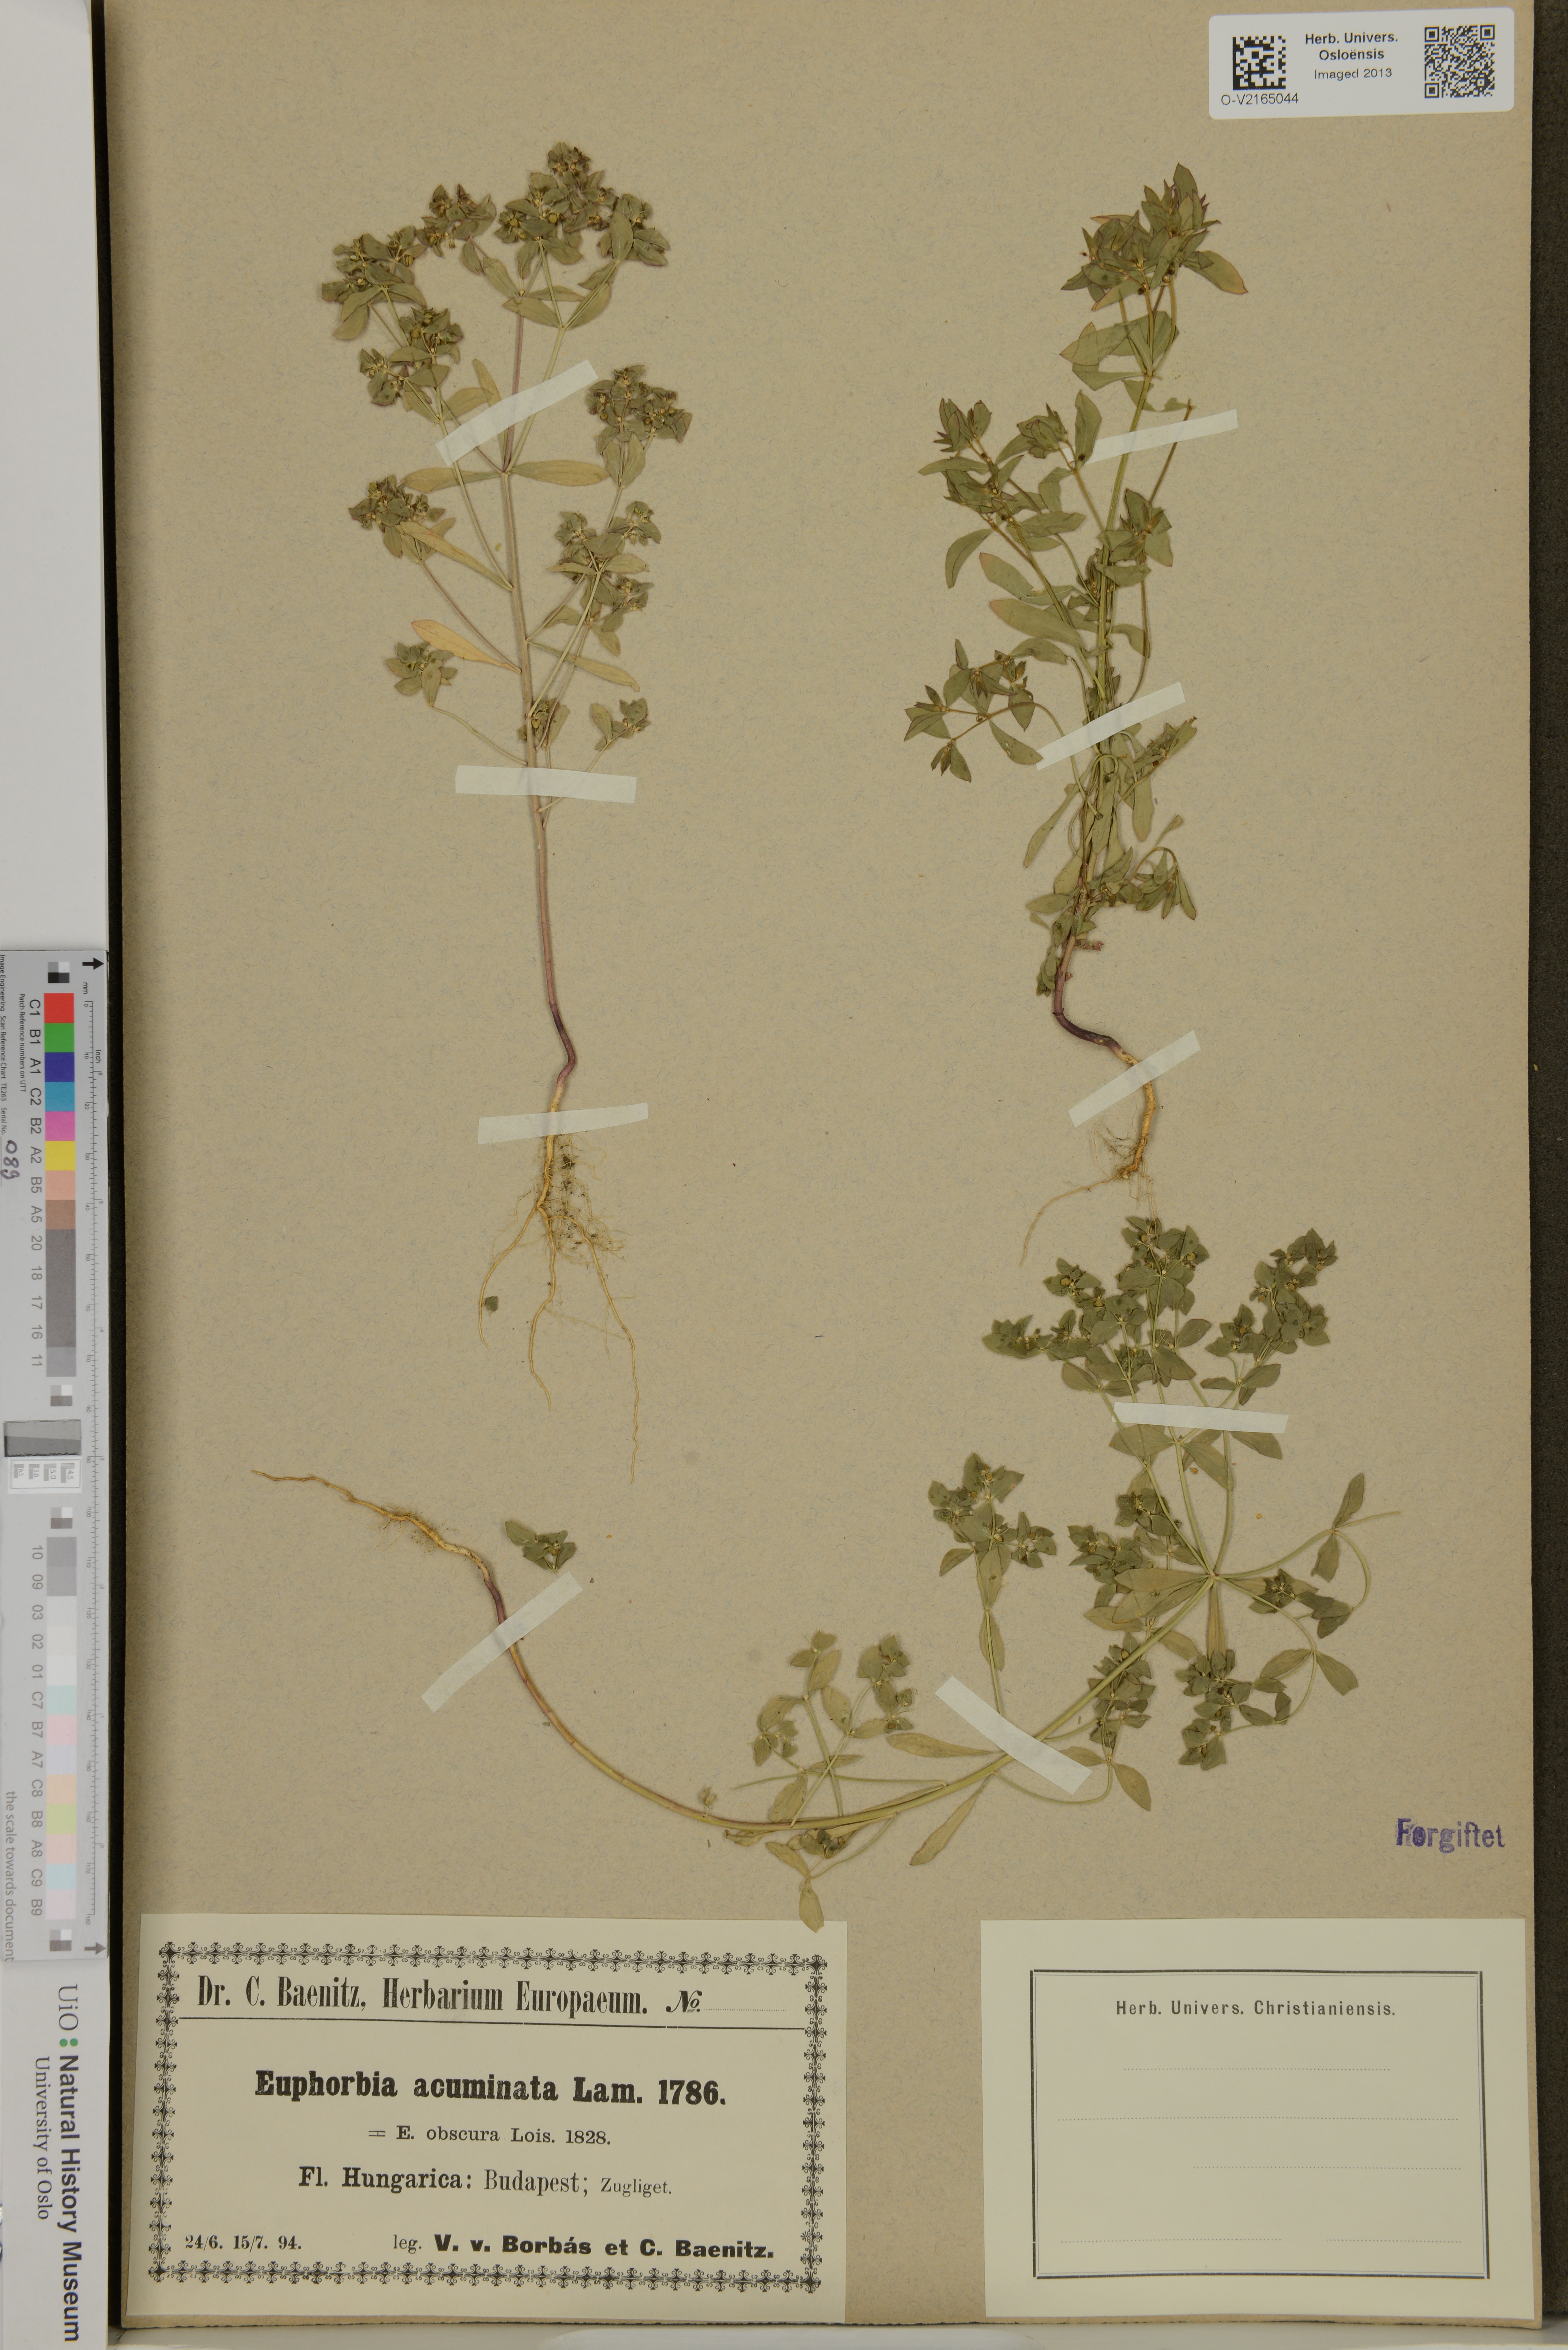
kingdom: Plantae
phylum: Tracheophyta
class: Magnoliopsida
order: Malpighiales
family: Euphorbiaceae
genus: Euphorbia
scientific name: Euphorbia falcata
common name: Sickle spurge
